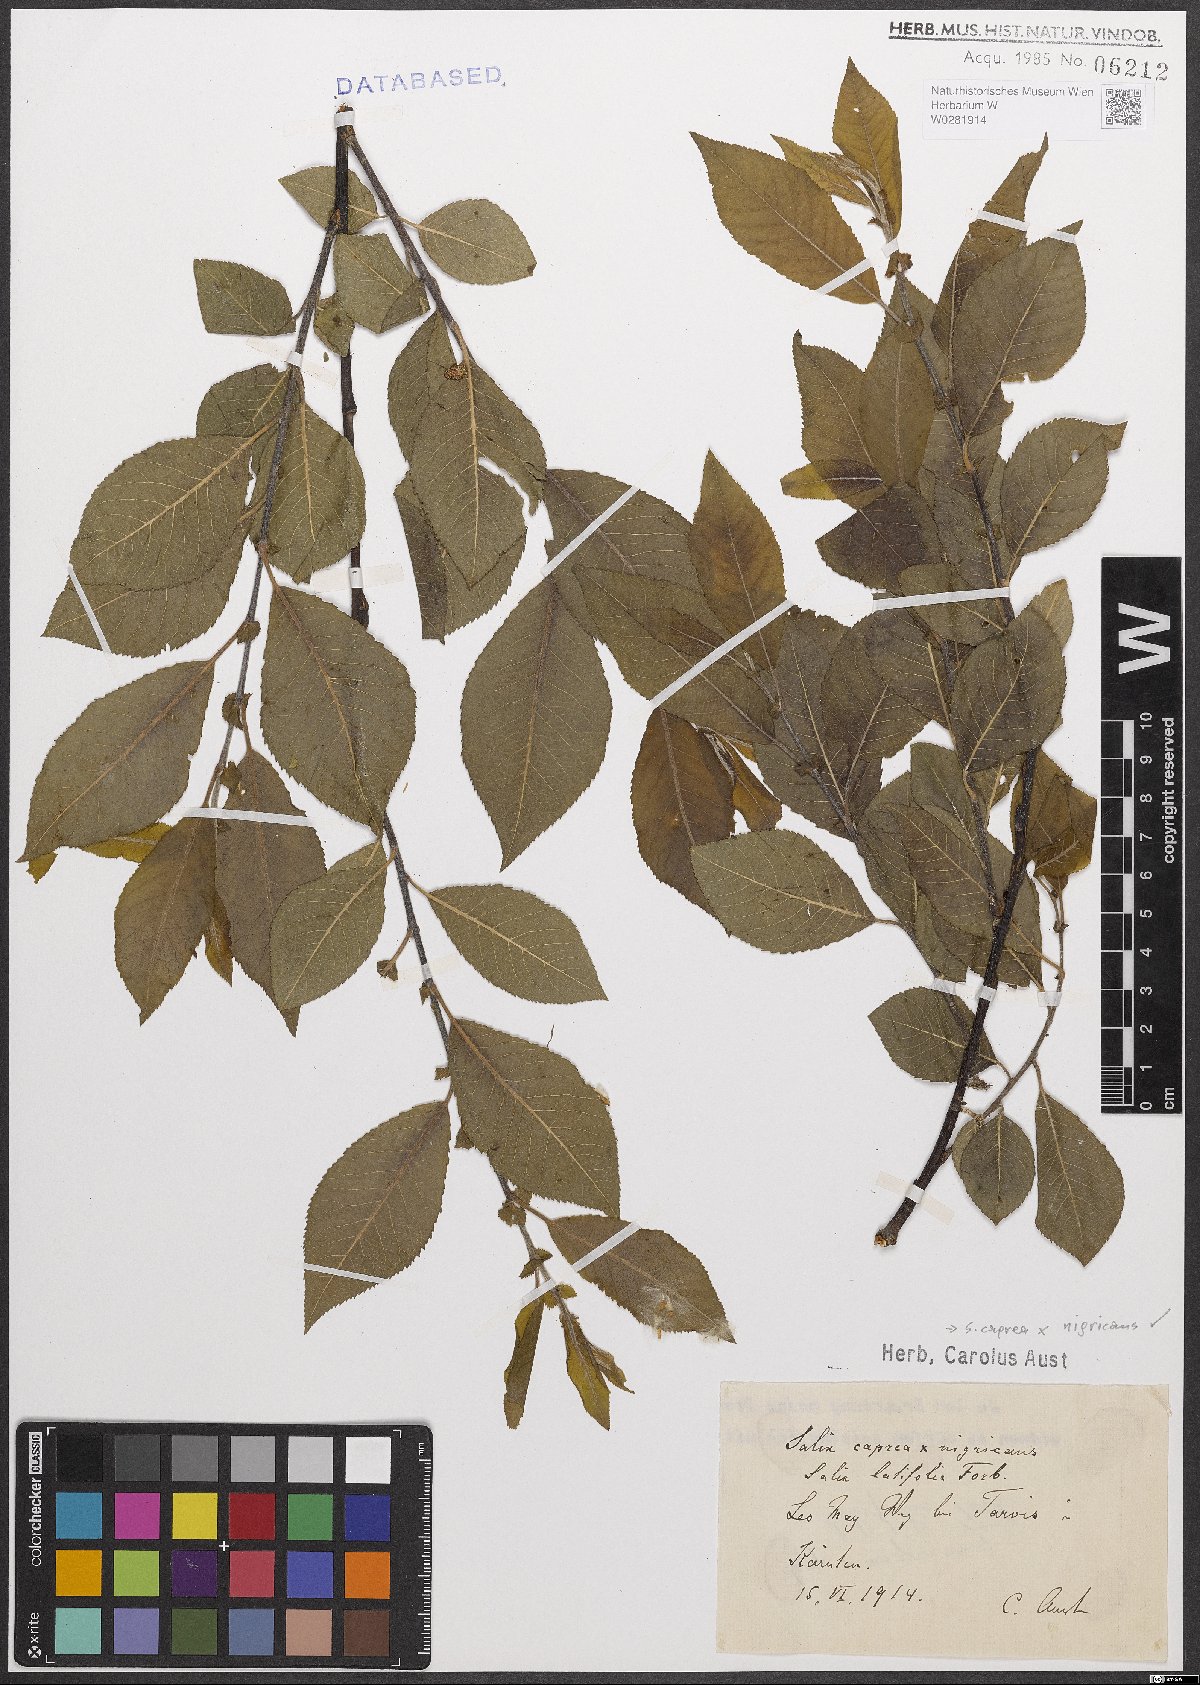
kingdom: Plantae
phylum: Tracheophyta
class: Magnoliopsida
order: Malpighiales
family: Salicaceae
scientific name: Salicaceae
